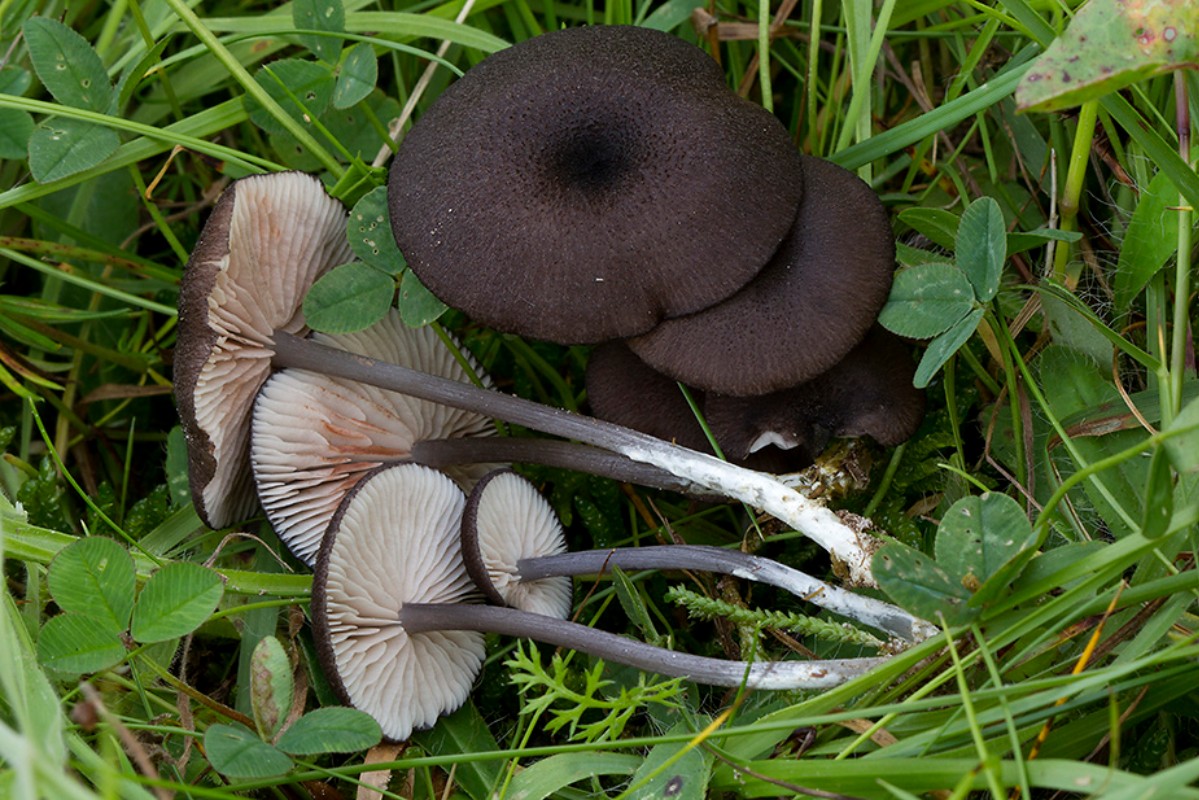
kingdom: Fungi
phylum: Basidiomycota
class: Agaricomycetes
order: Agaricales
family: Entolomataceae
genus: Entoloma
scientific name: Entoloma porphyrogriseum
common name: porfyrgrå rødblad
